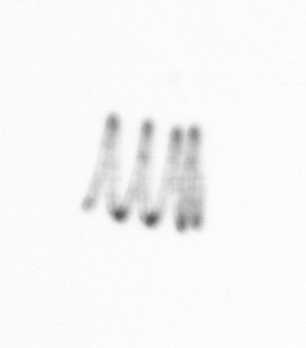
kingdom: Chromista
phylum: Ochrophyta
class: Bacillariophyceae
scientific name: Bacillariophyceae
